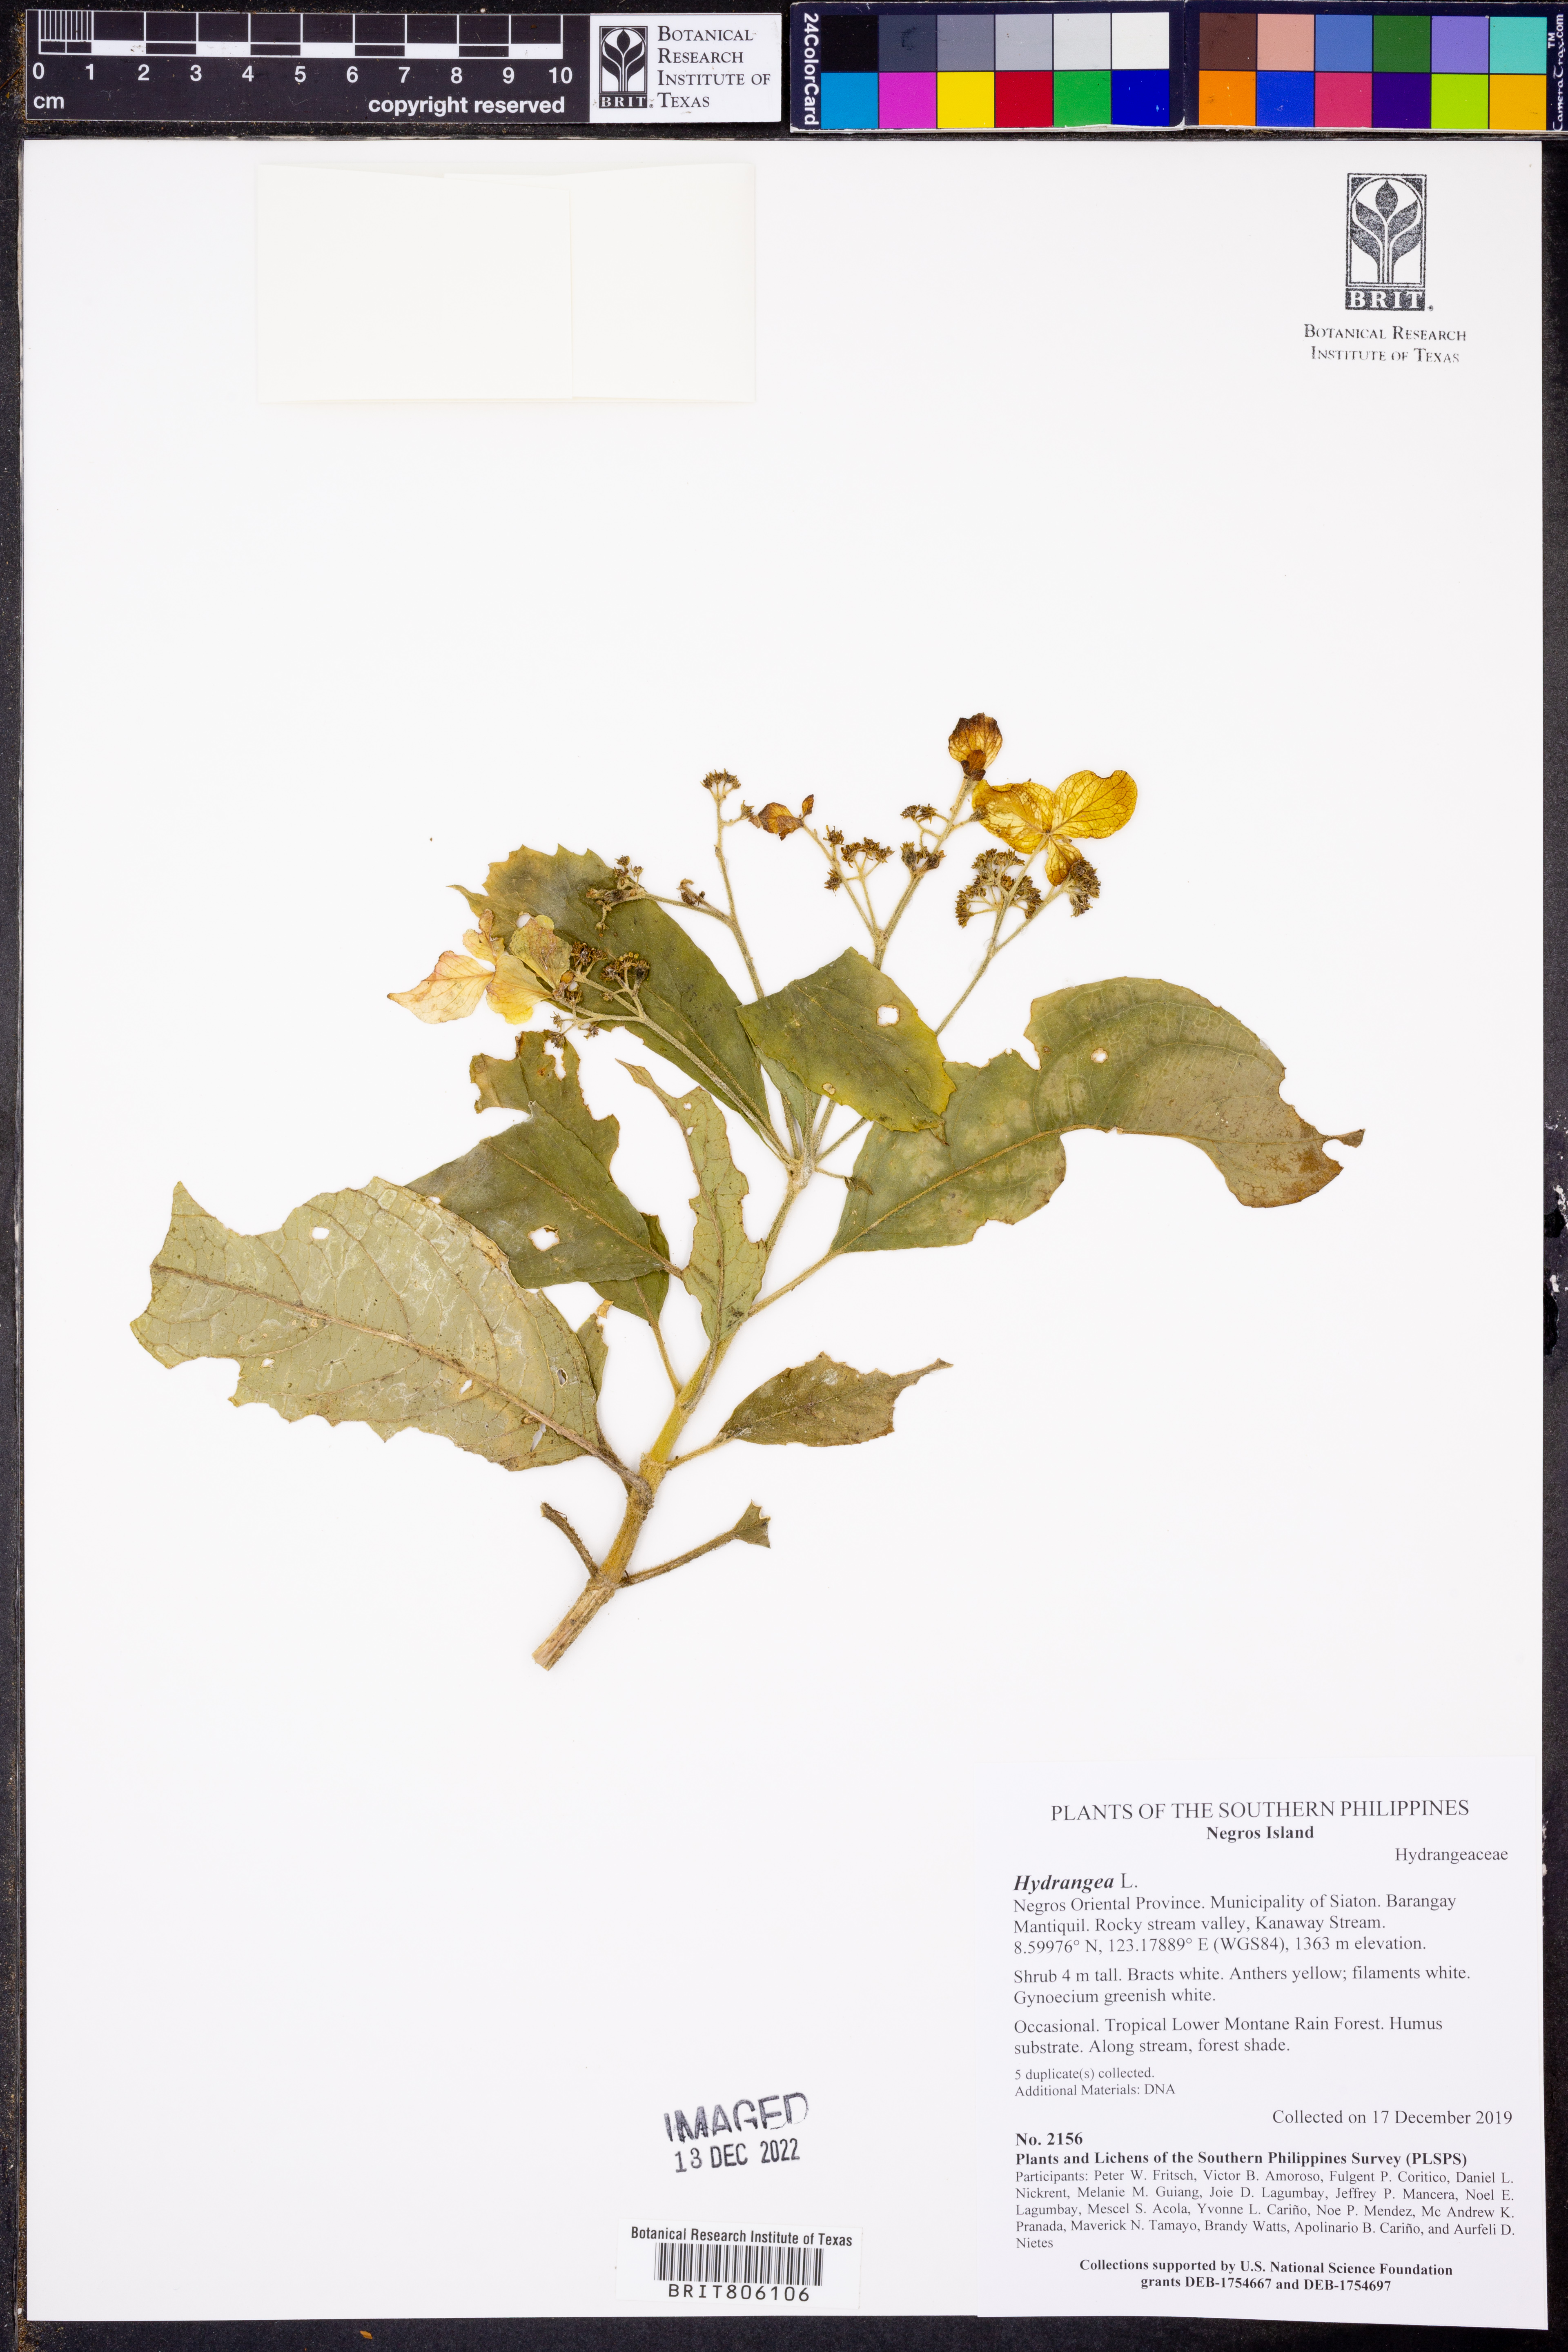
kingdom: Plantae
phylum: Tracheophyta
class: Magnoliopsida
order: Cornales
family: Hydrangeaceae
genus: Hydrangea
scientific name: Hydrangea
